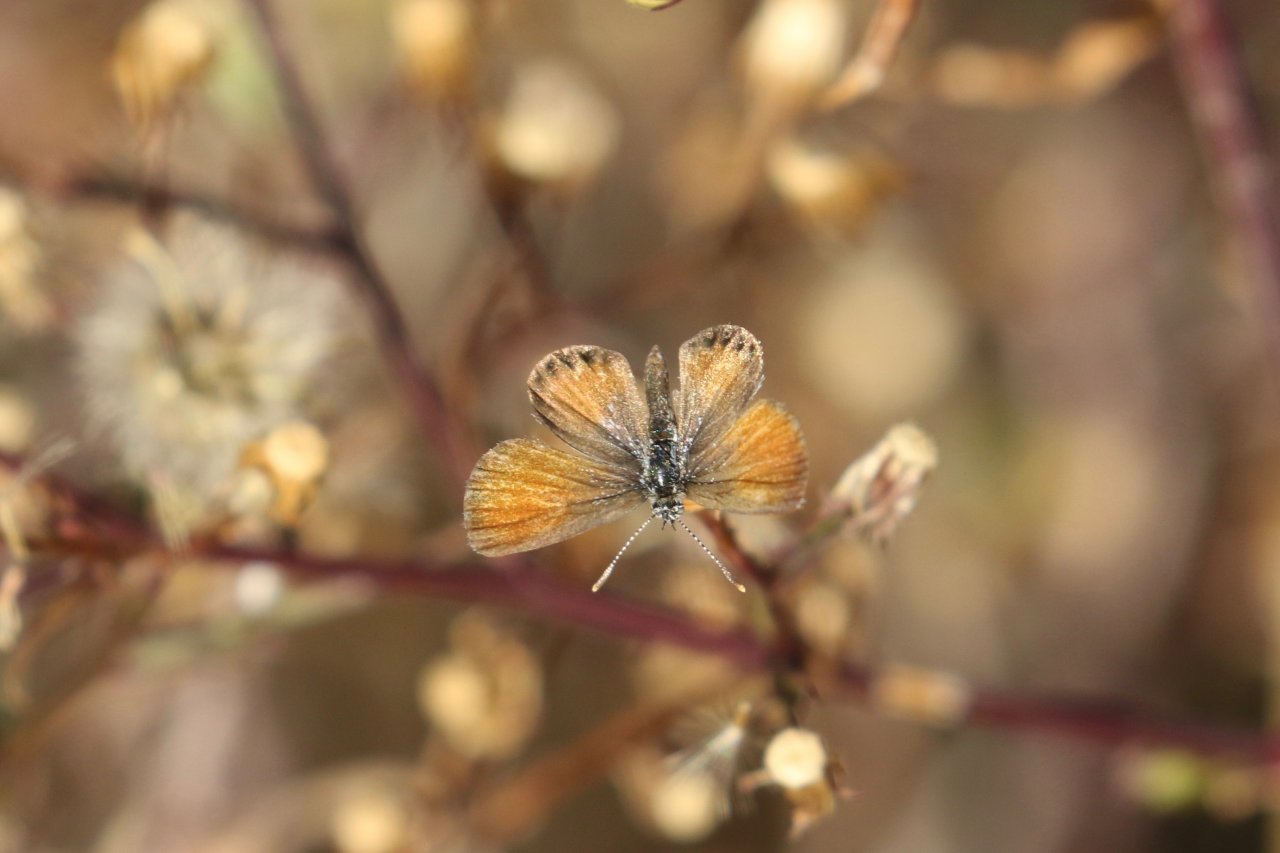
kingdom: Animalia
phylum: Arthropoda
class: Insecta
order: Lepidoptera
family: Lycaenidae
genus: Brephidium
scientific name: Brephidium exilis
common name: Western Pygmy-Blue
